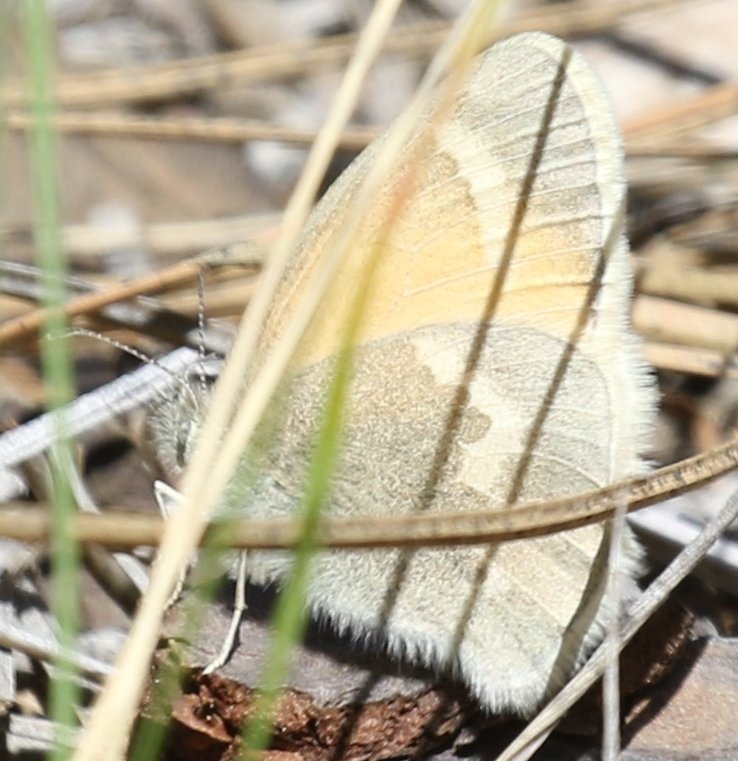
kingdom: Animalia
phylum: Arthropoda
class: Insecta
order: Lepidoptera
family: Nymphalidae
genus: Coenonympha
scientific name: Coenonympha tullia
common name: Large Heath
